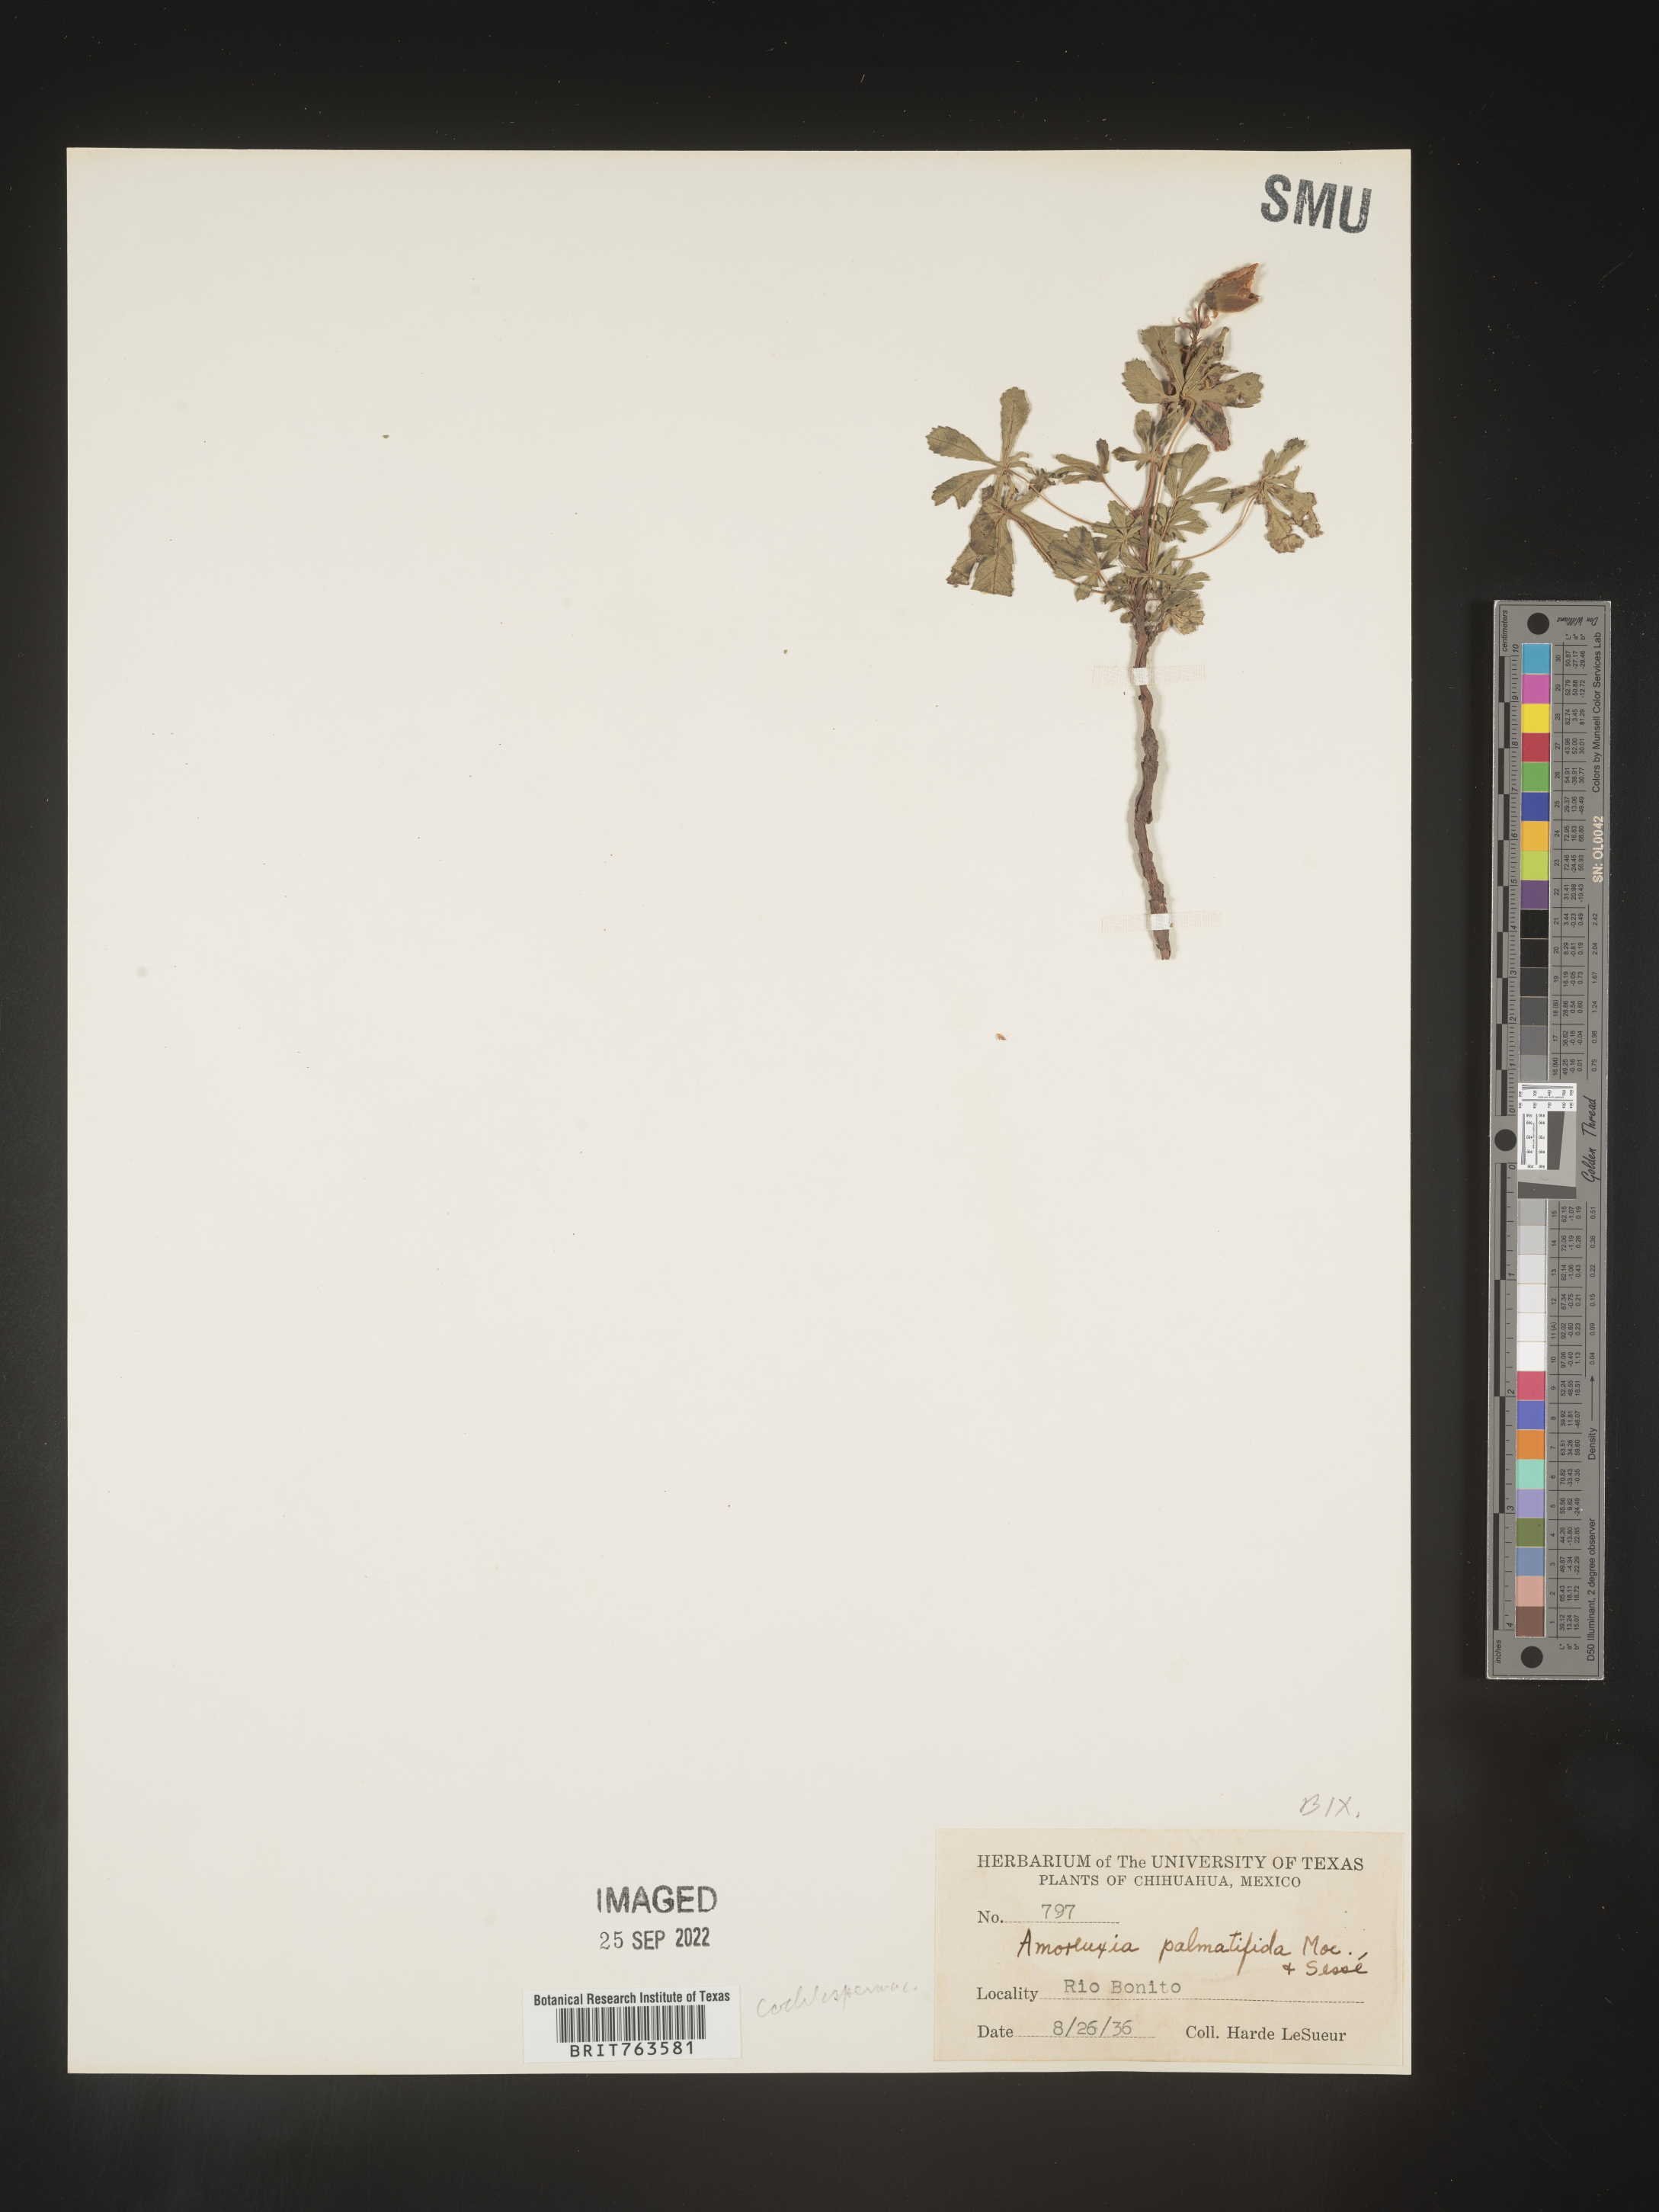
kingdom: Plantae
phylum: Tracheophyta
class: Magnoliopsida
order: Caryophyllales
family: Amaranthaceae
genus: Amoreuxia
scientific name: Amoreuxia
